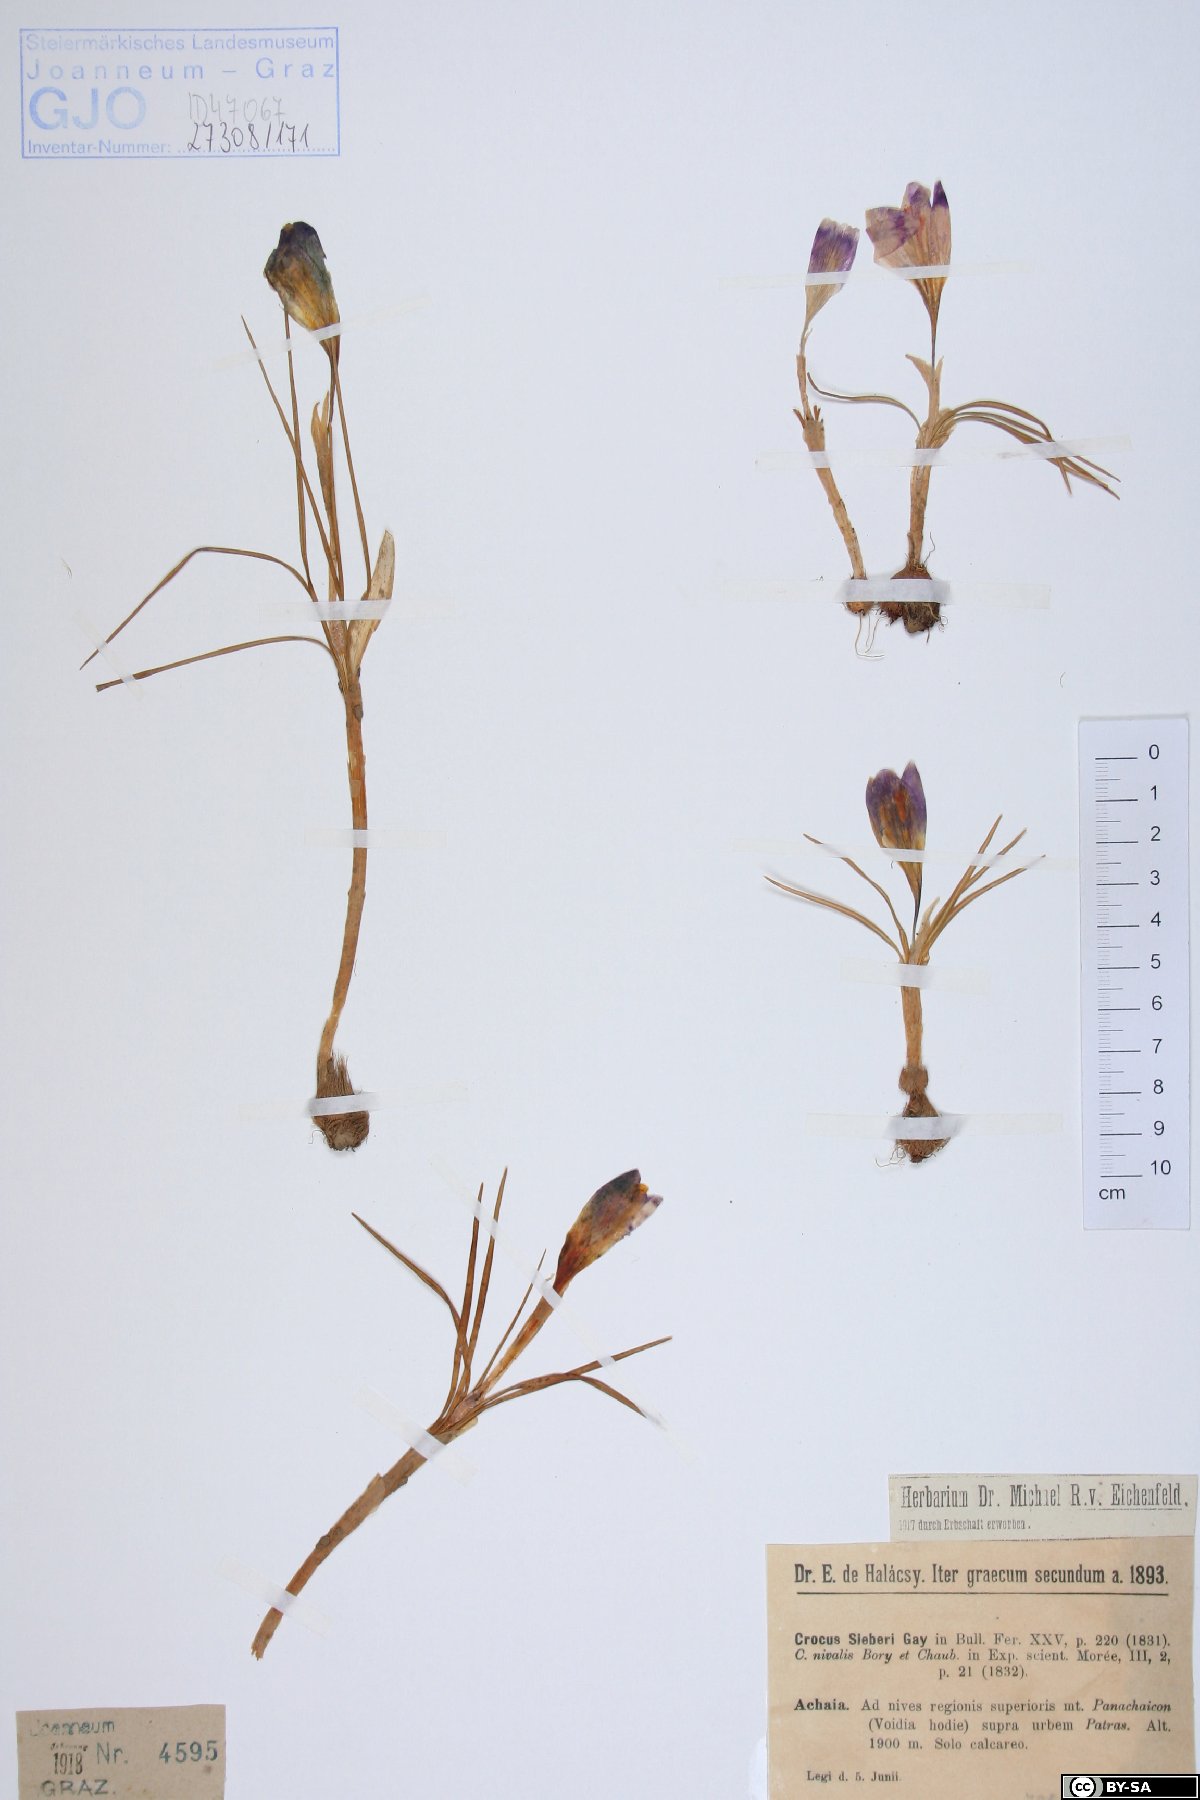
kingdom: Plantae
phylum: Tracheophyta
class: Liliopsida
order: Asparagales
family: Iridaceae
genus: Crocus
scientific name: Crocus sieberi
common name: Sieber's crocus
